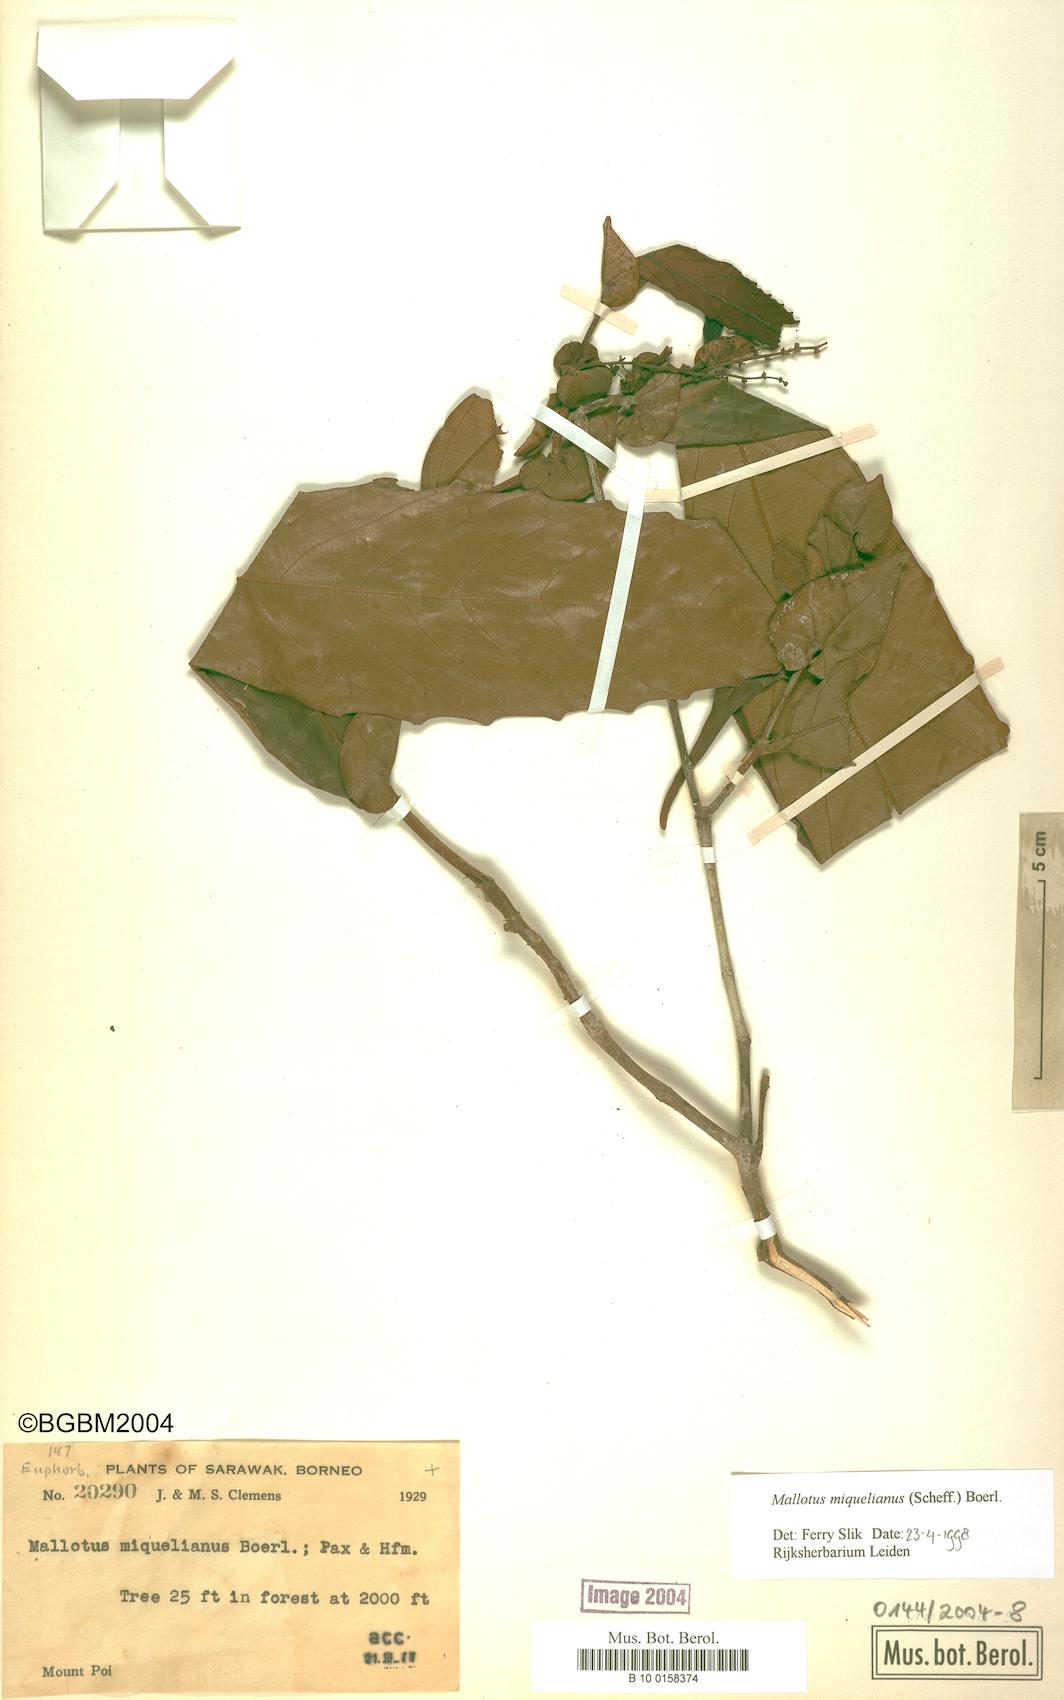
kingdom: Plantae
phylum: Tracheophyta
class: Magnoliopsida
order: Malpighiales
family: Euphorbiaceae
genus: Mallotus
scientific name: Mallotus miquelianus
